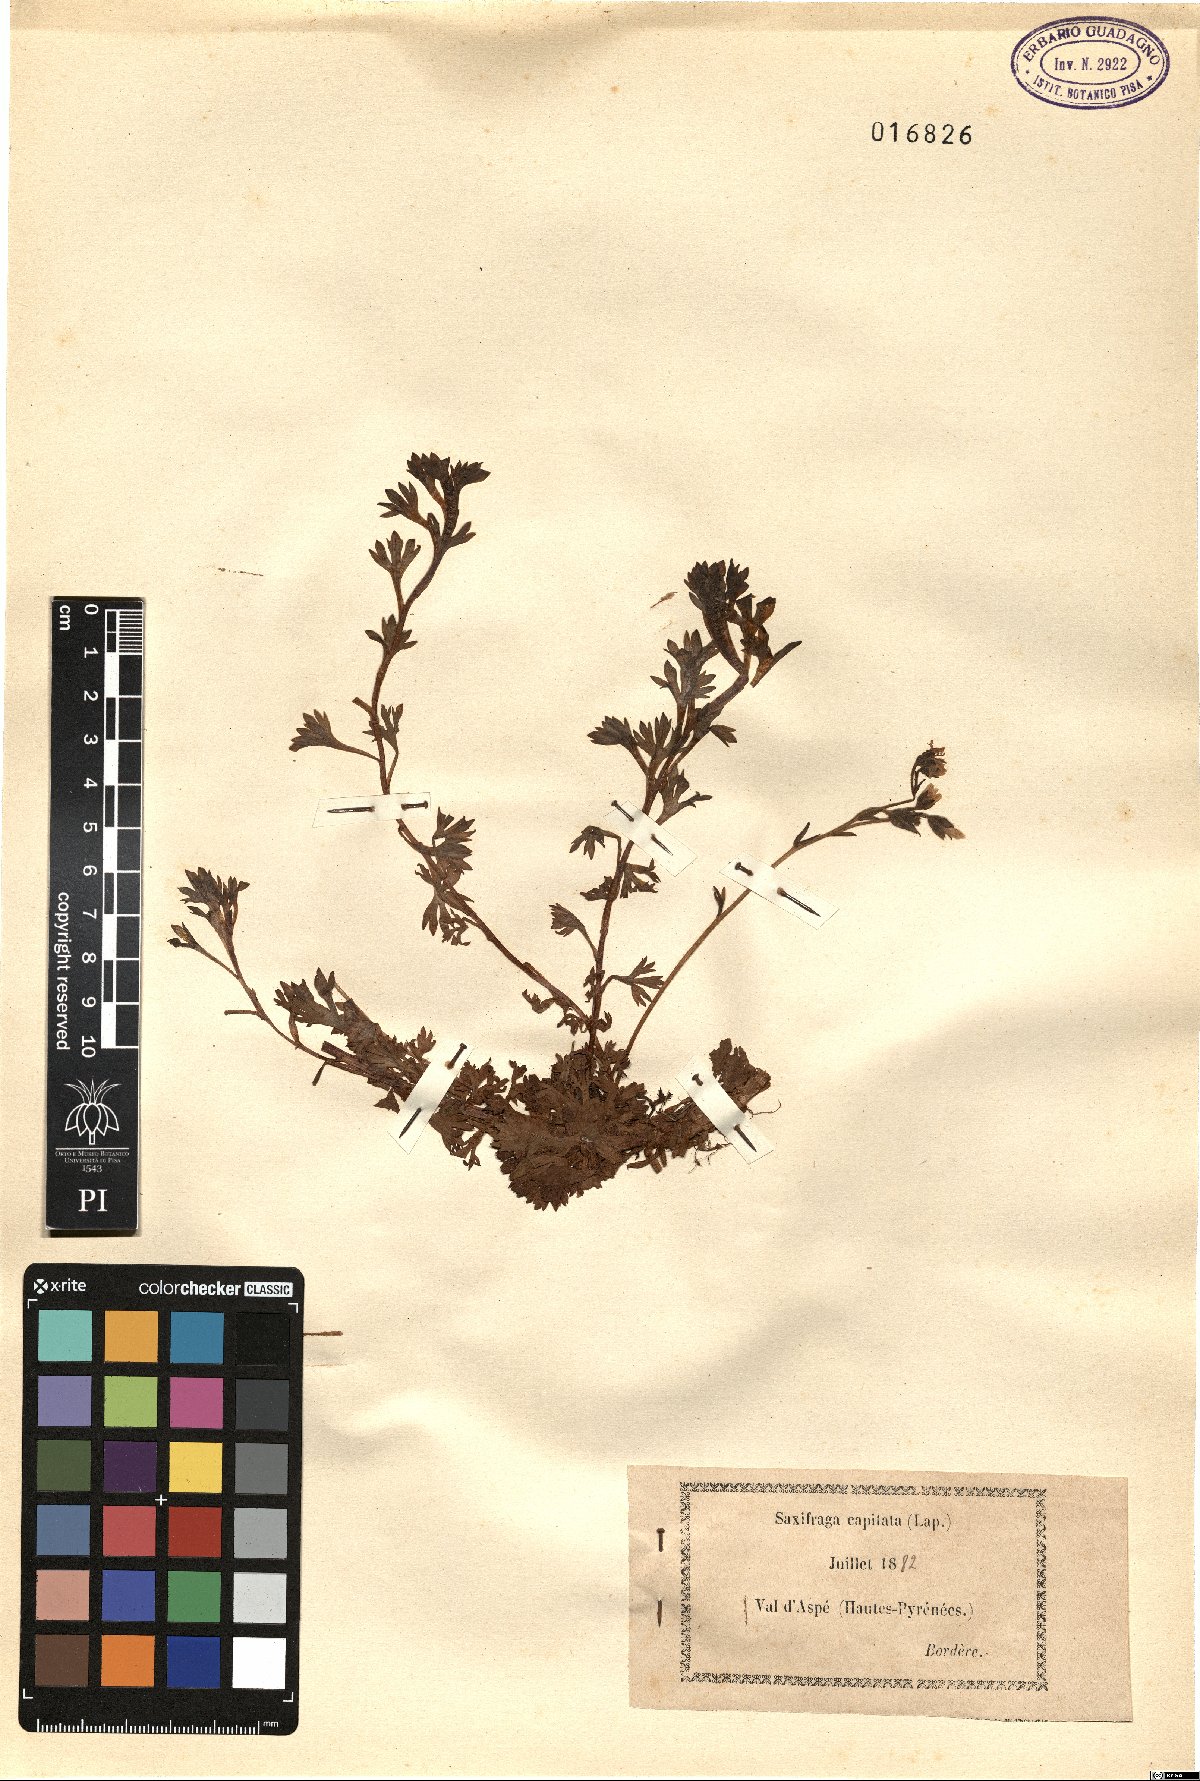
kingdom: Plantae
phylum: Tracheophyta
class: Magnoliopsida
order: Saxifragales
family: Saxifragaceae
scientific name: Saxifragaceae
